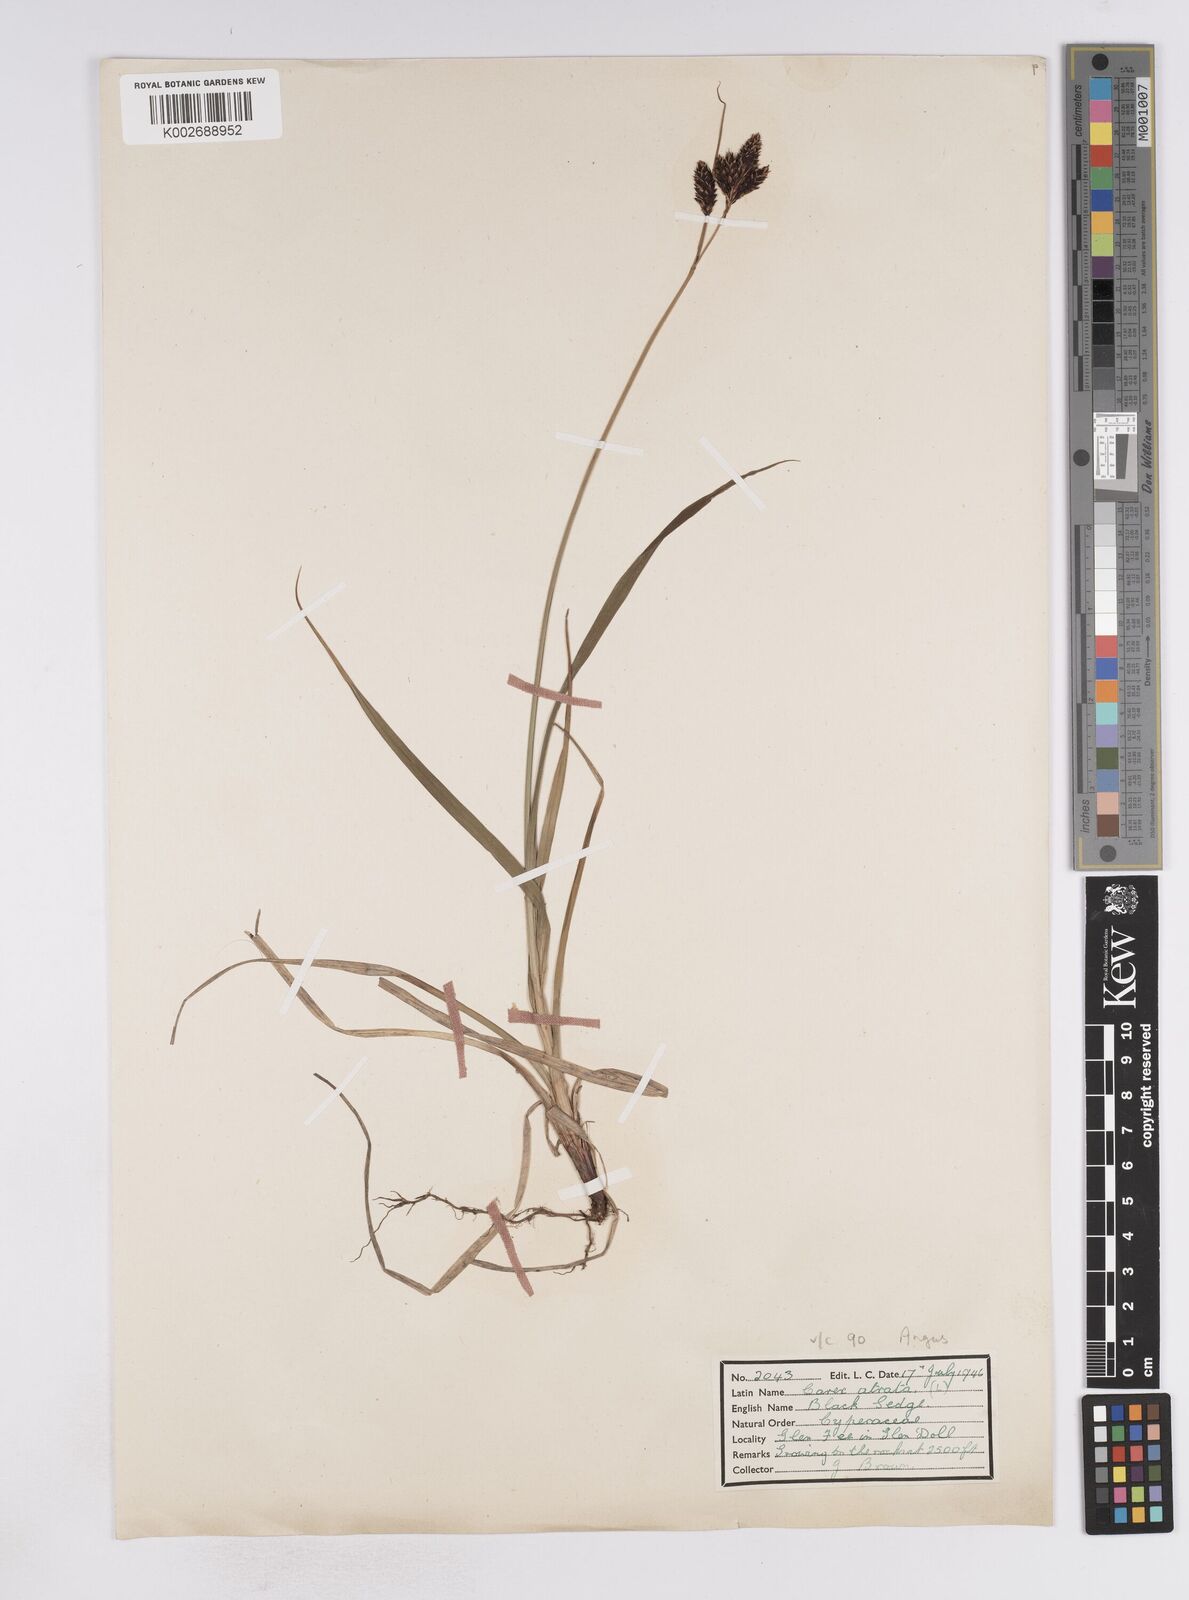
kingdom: Plantae
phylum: Tracheophyta
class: Liliopsida
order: Poales
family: Cyperaceae
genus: Carex
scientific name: Carex atrata
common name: Black alpine sedge
